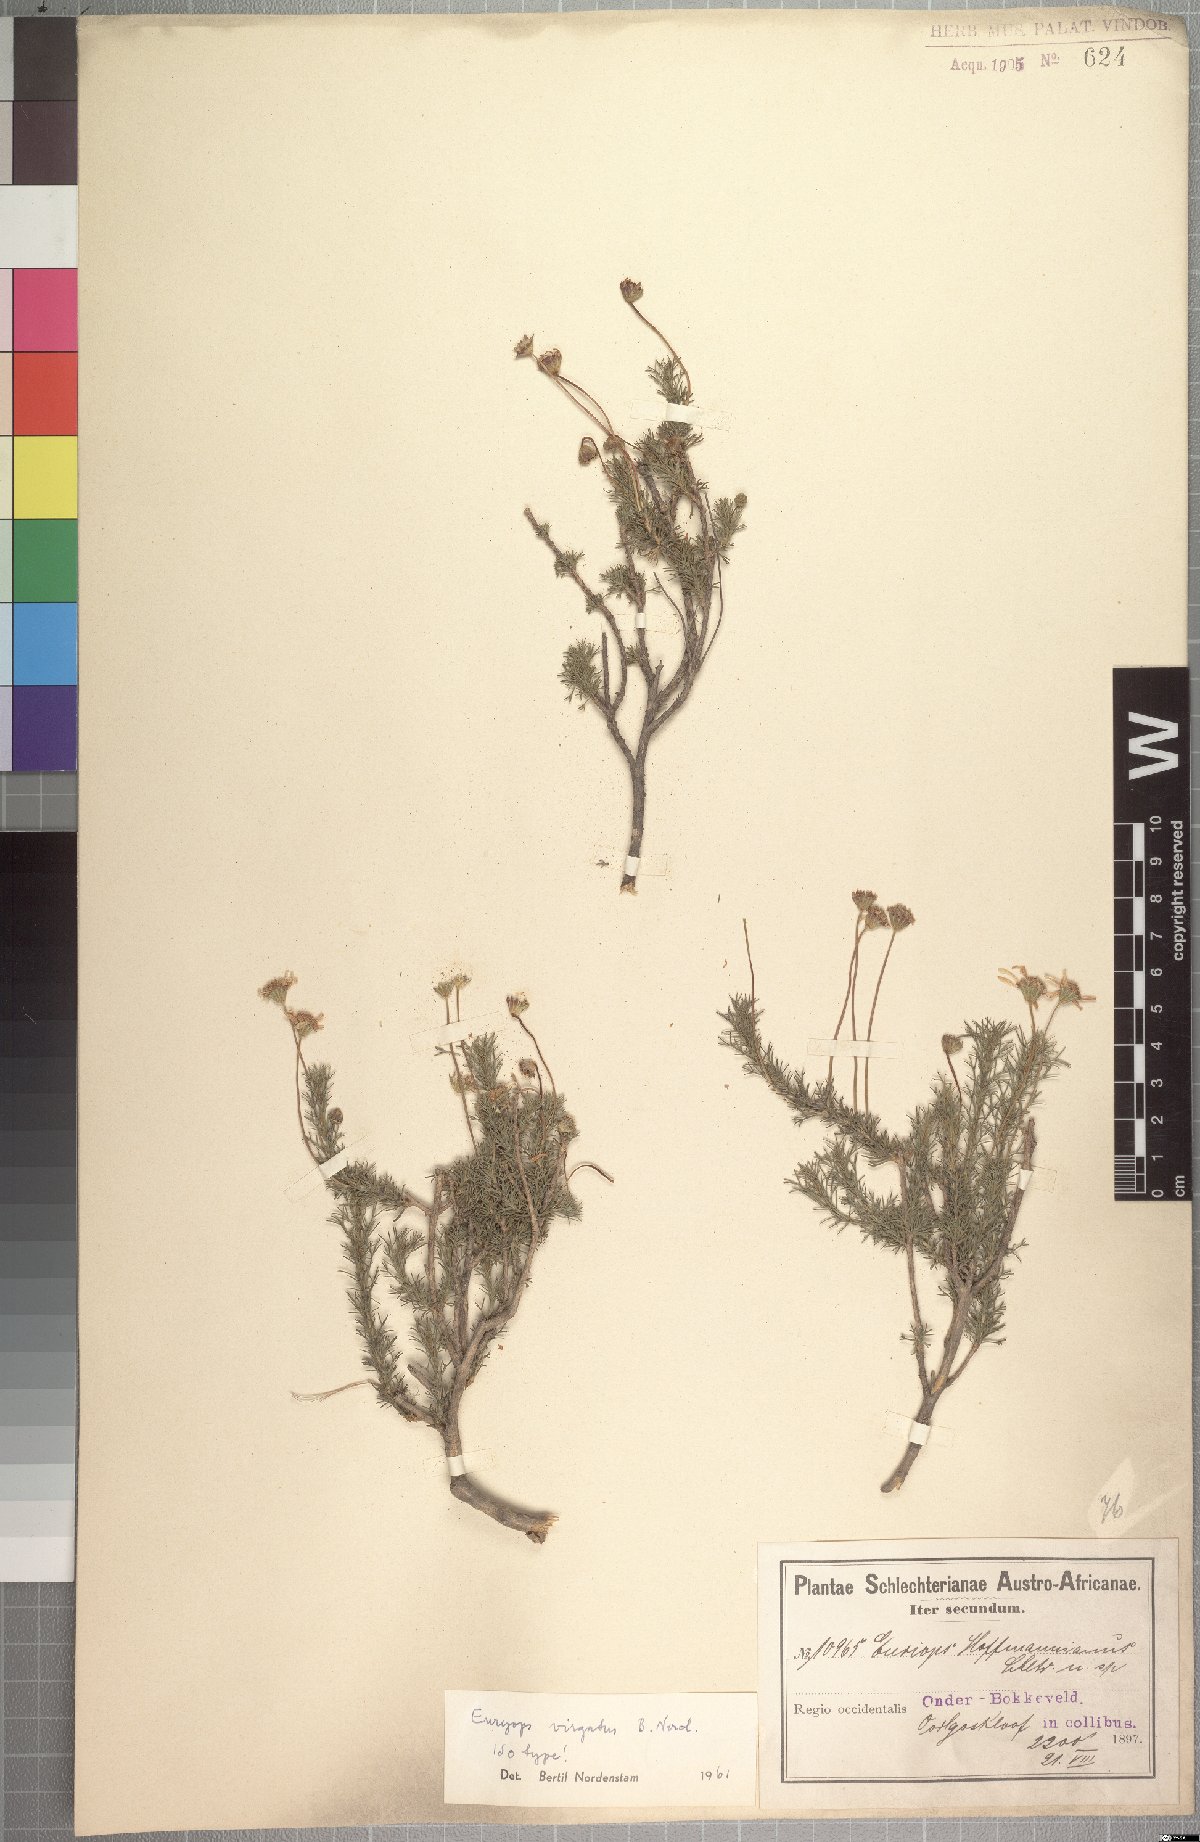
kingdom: Plantae
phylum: Tracheophyta
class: Magnoliopsida
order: Asterales
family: Asteraceae
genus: Euryops
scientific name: Euryops virgatus
